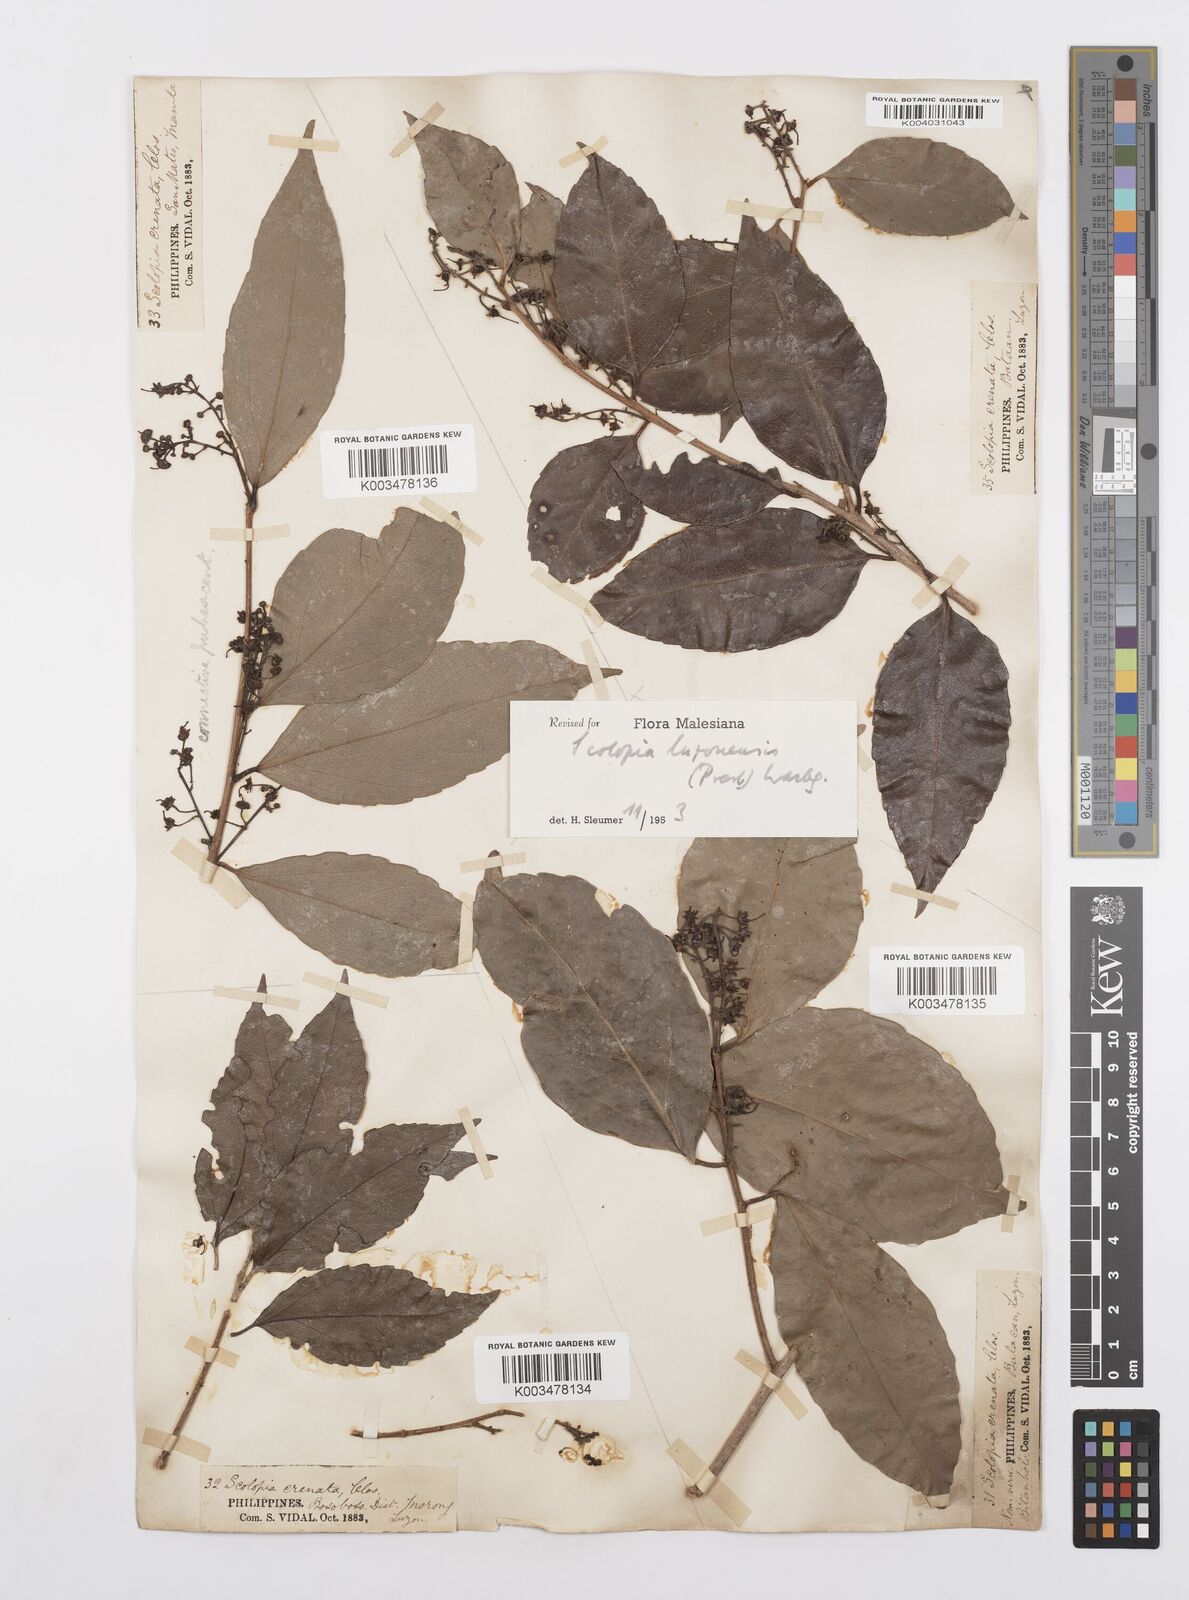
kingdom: Plantae
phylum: Tracheophyta
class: Magnoliopsida
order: Malpighiales
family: Salicaceae
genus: Scolopia
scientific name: Scolopia luzonensis
